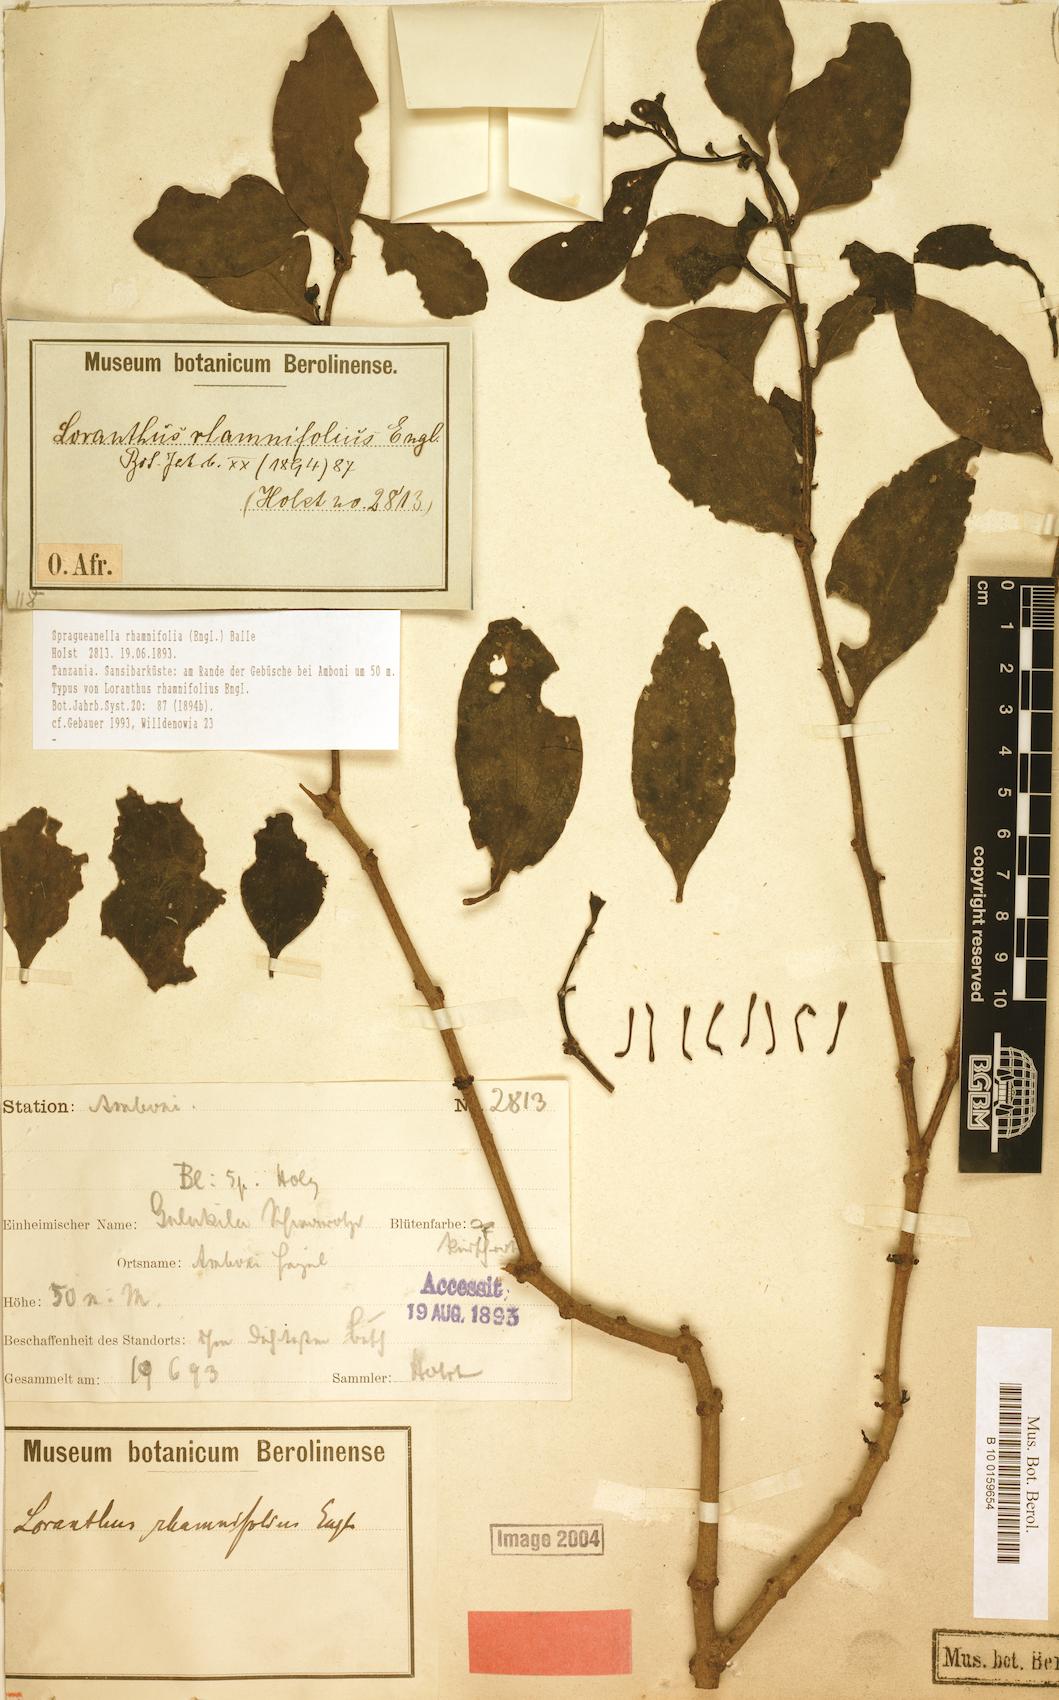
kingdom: Plantae
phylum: Tracheophyta
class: Magnoliopsida
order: Santalales
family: Loranthaceae
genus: Spragueanella
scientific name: Spragueanella rhamnifolia
